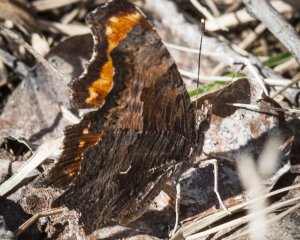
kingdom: Animalia
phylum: Arthropoda
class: Insecta
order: Lepidoptera
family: Nymphalidae
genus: Polygonia
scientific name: Polygonia progne
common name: Gray Comma
